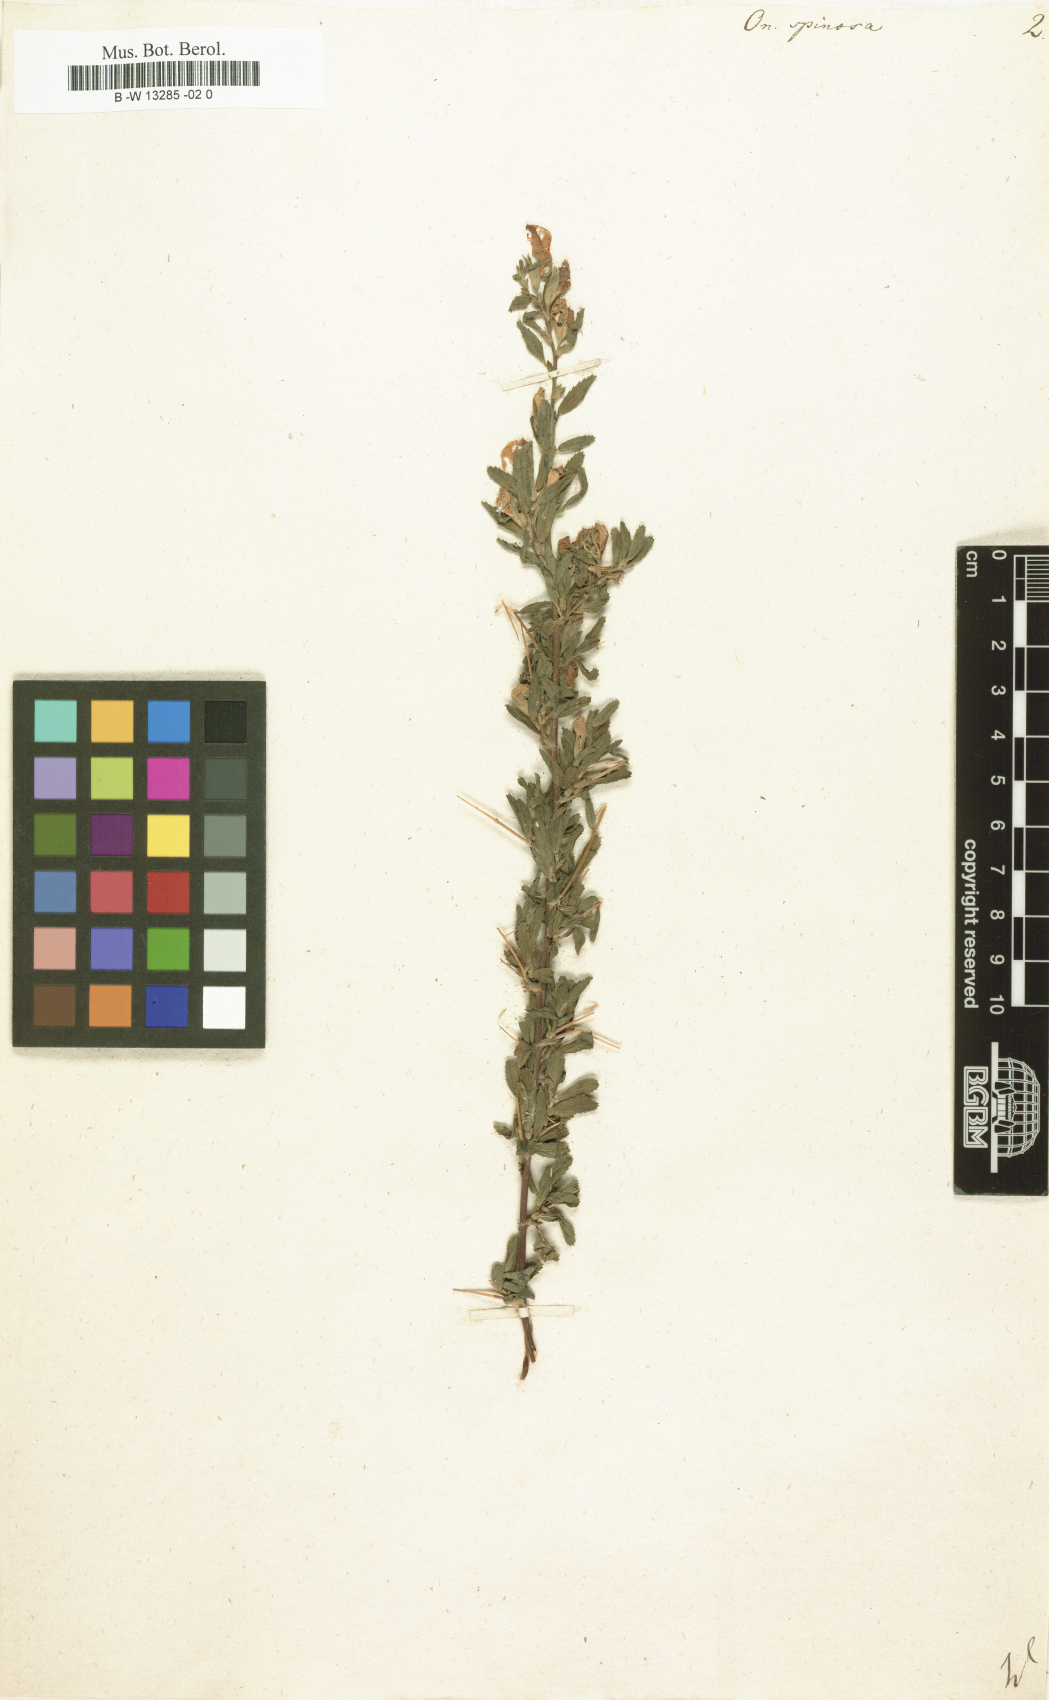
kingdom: Plantae
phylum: Tracheophyta
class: Magnoliopsida
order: Fabales
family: Fabaceae
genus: Ononis
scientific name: Ononis spinosa
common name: Spiny restharrow
